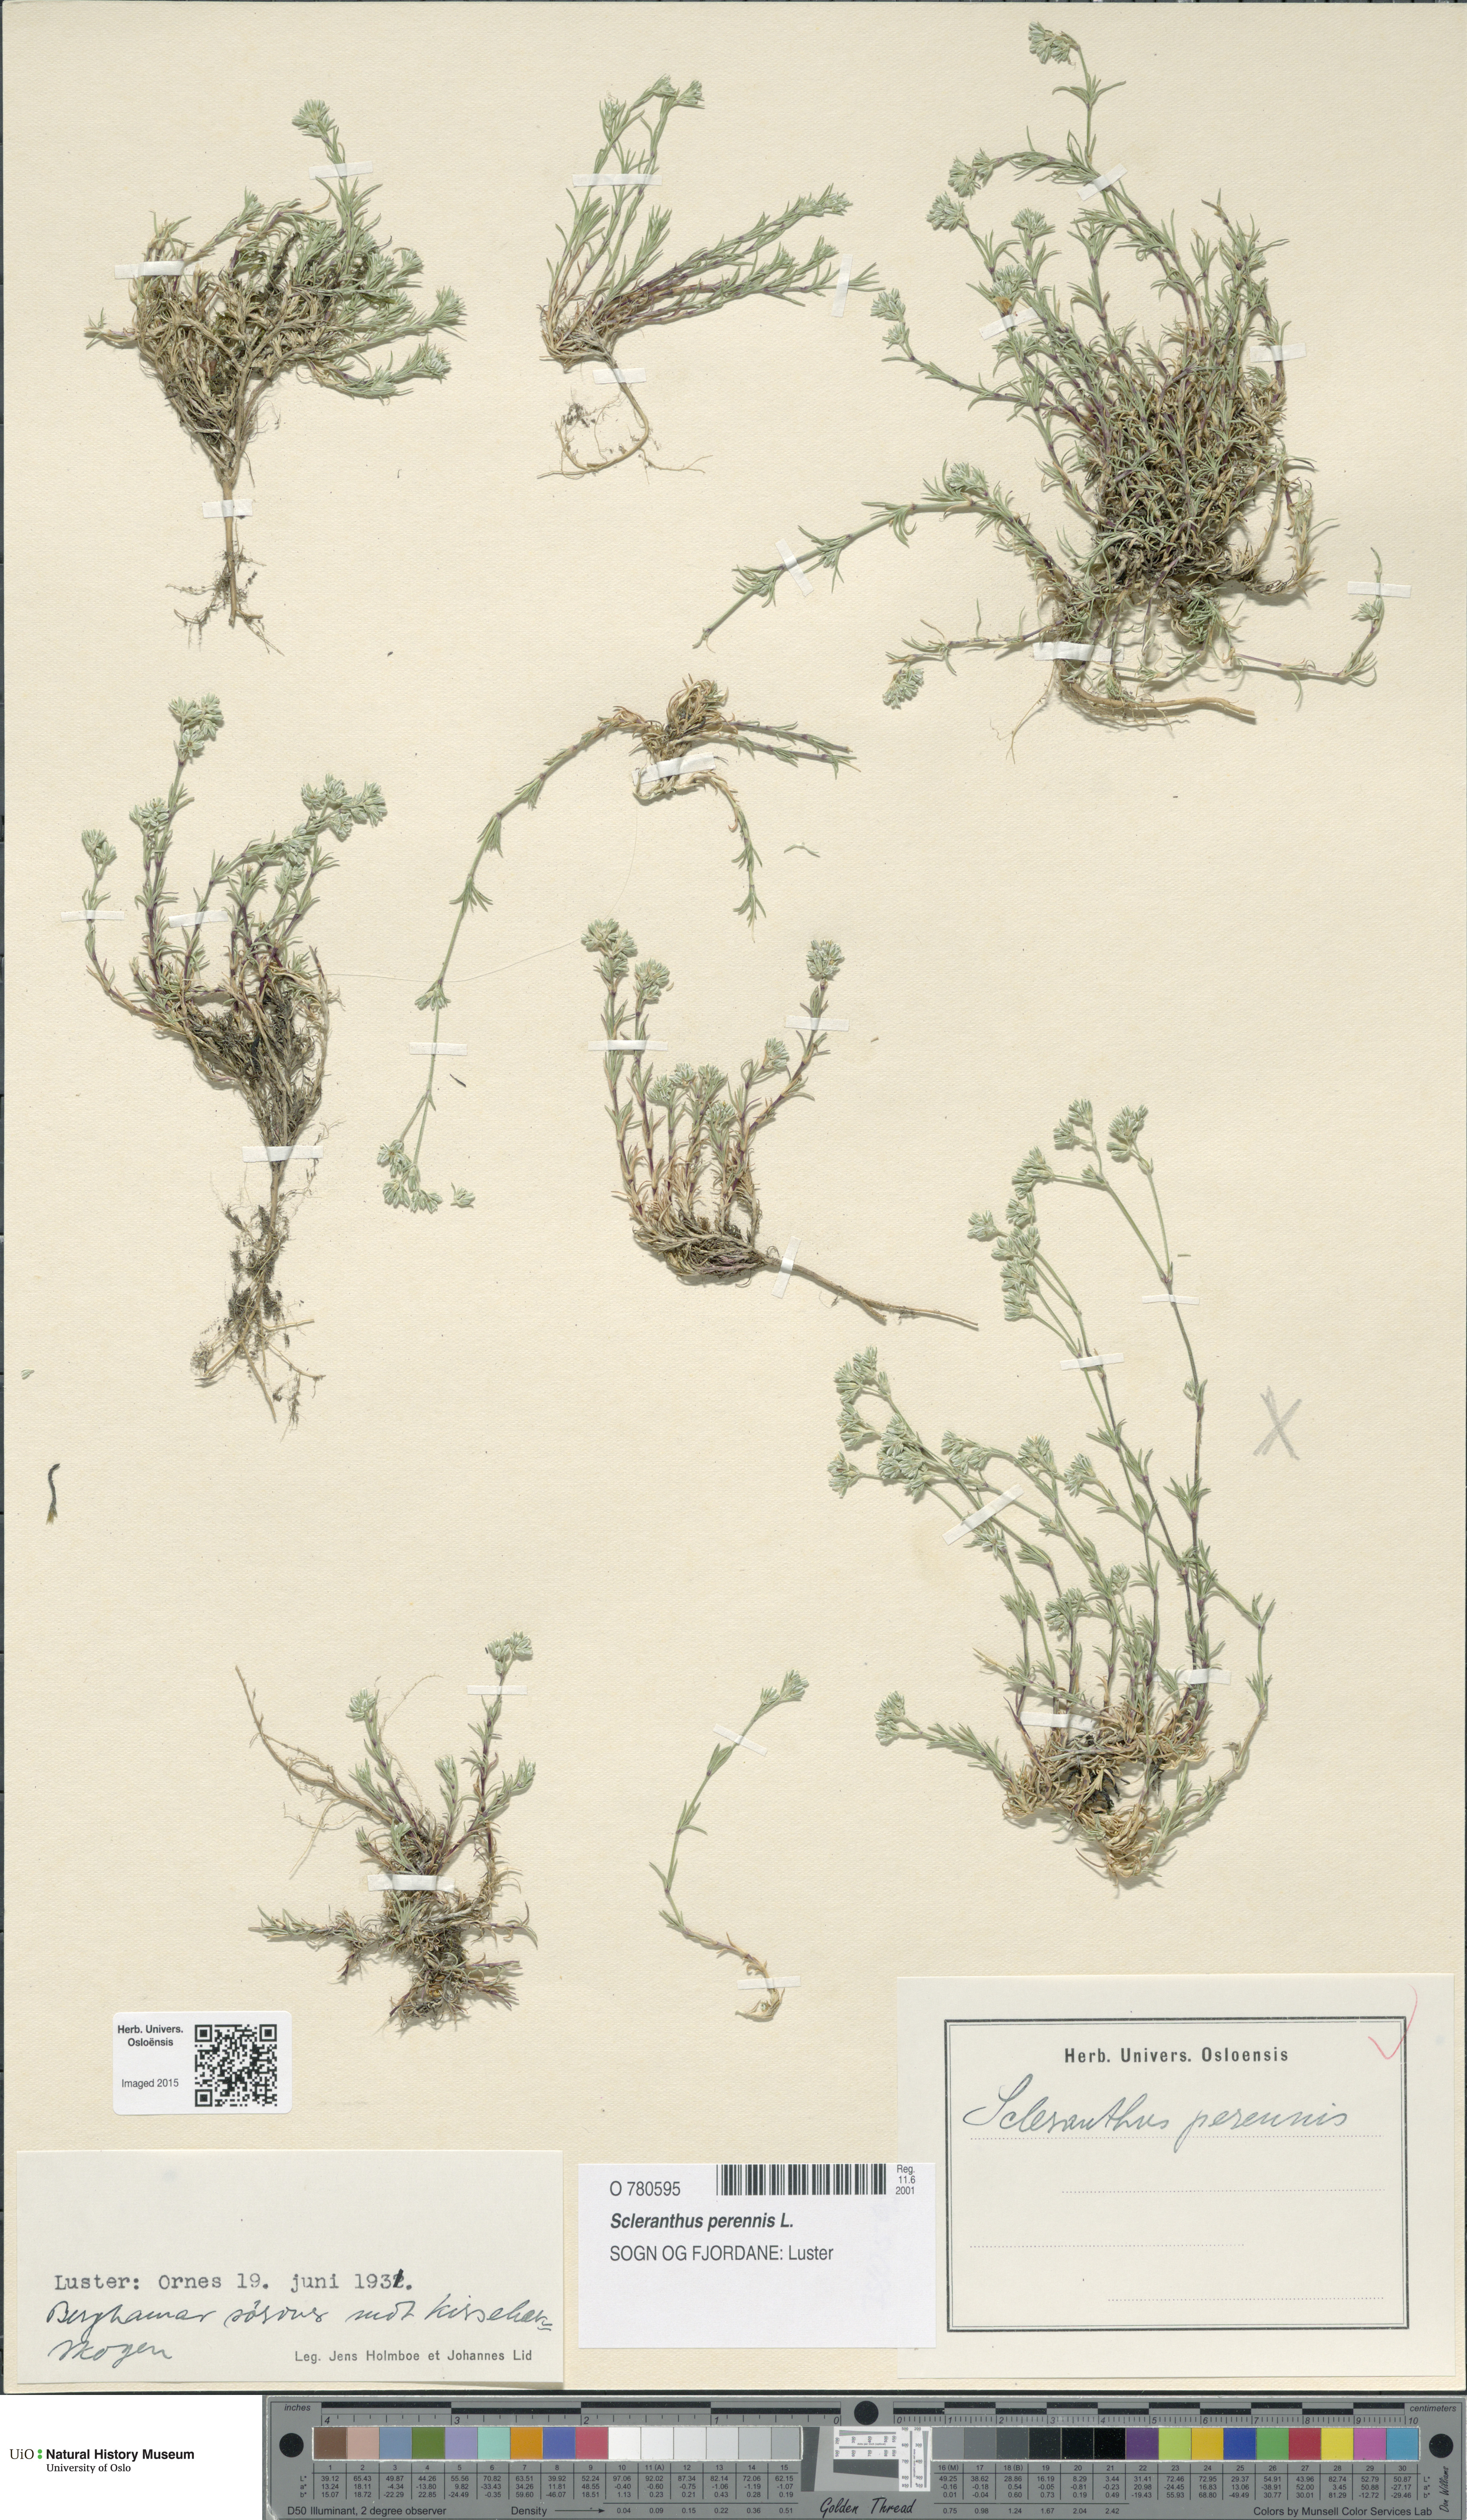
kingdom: Plantae
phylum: Tracheophyta
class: Magnoliopsida
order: Caryophyllales
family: Caryophyllaceae
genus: Scleranthus
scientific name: Scleranthus perennis
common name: Perennial knawel
